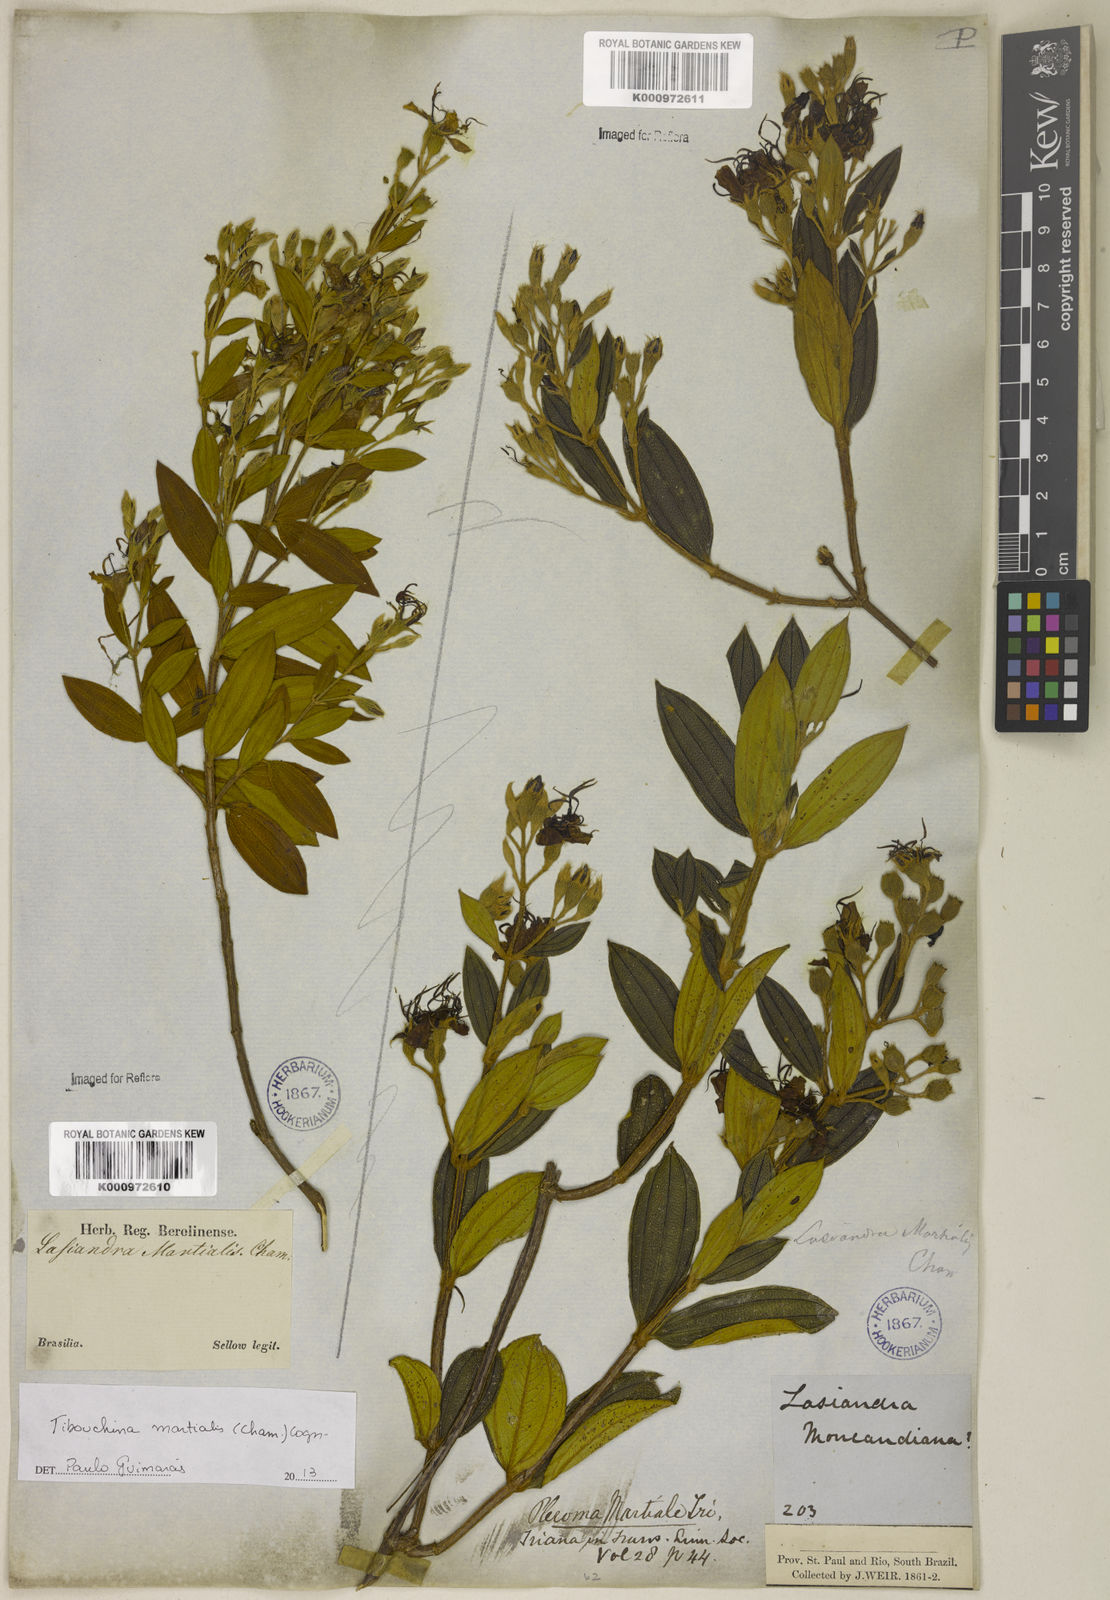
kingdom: Plantae
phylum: Tracheophyta
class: Magnoliopsida
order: Myrtales
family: Melastomataceae
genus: Pleroma
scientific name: Pleroma martiale
